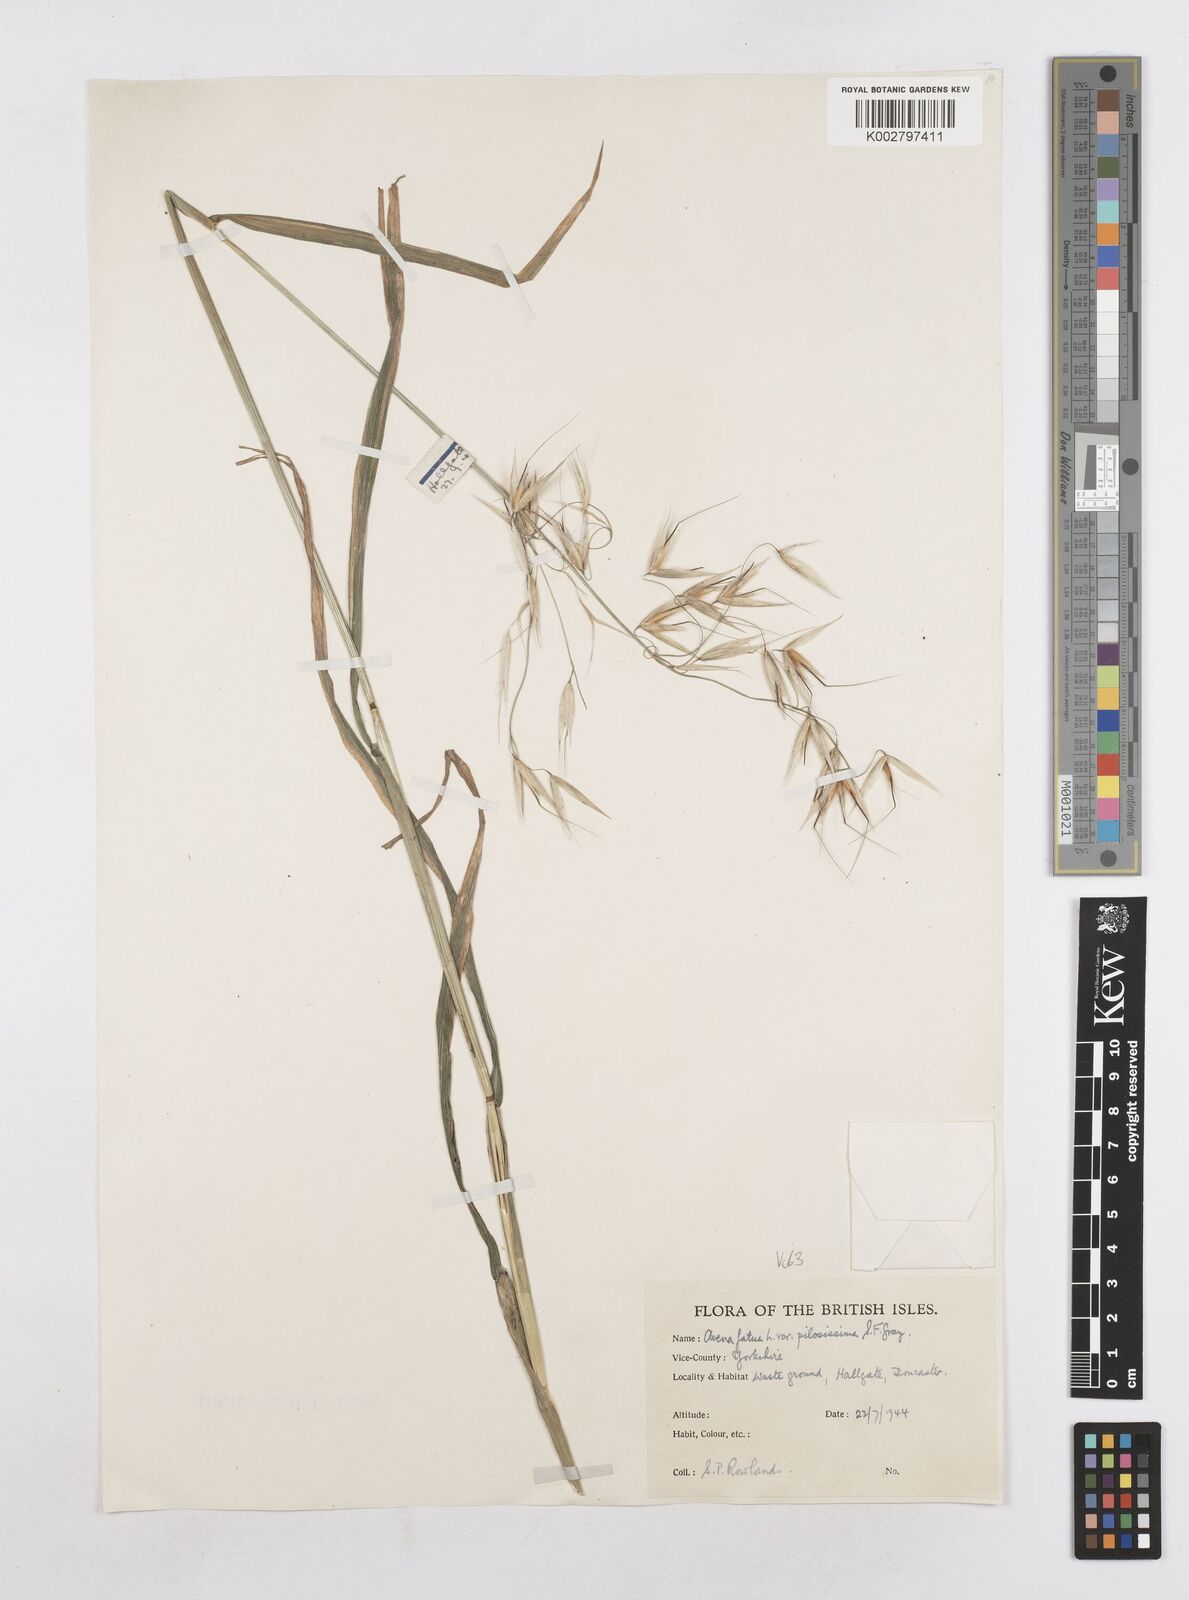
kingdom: Plantae
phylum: Tracheophyta
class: Liliopsida
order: Poales
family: Poaceae
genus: Avena
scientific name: Avena fatua
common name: Wild oat
